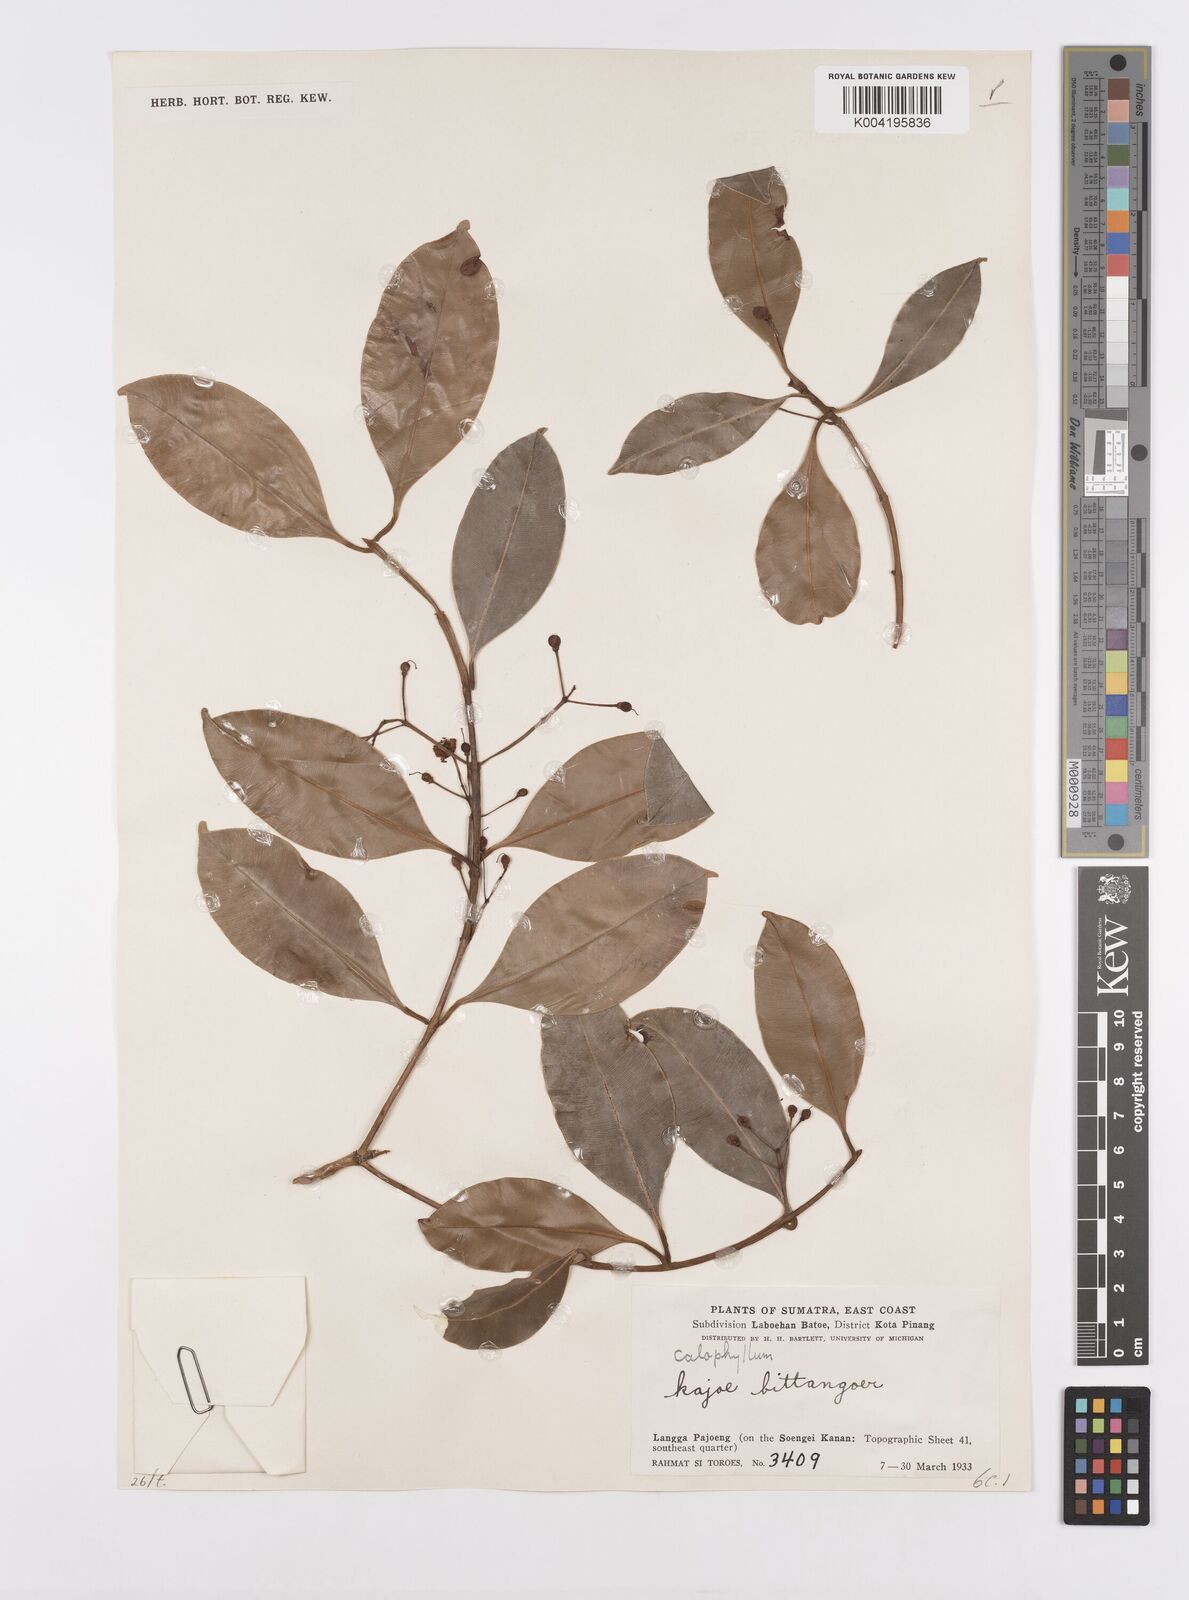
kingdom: Plantae
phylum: Tracheophyta
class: Magnoliopsida
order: Malpighiales
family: Calophyllaceae
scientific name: Calophyllaceae
